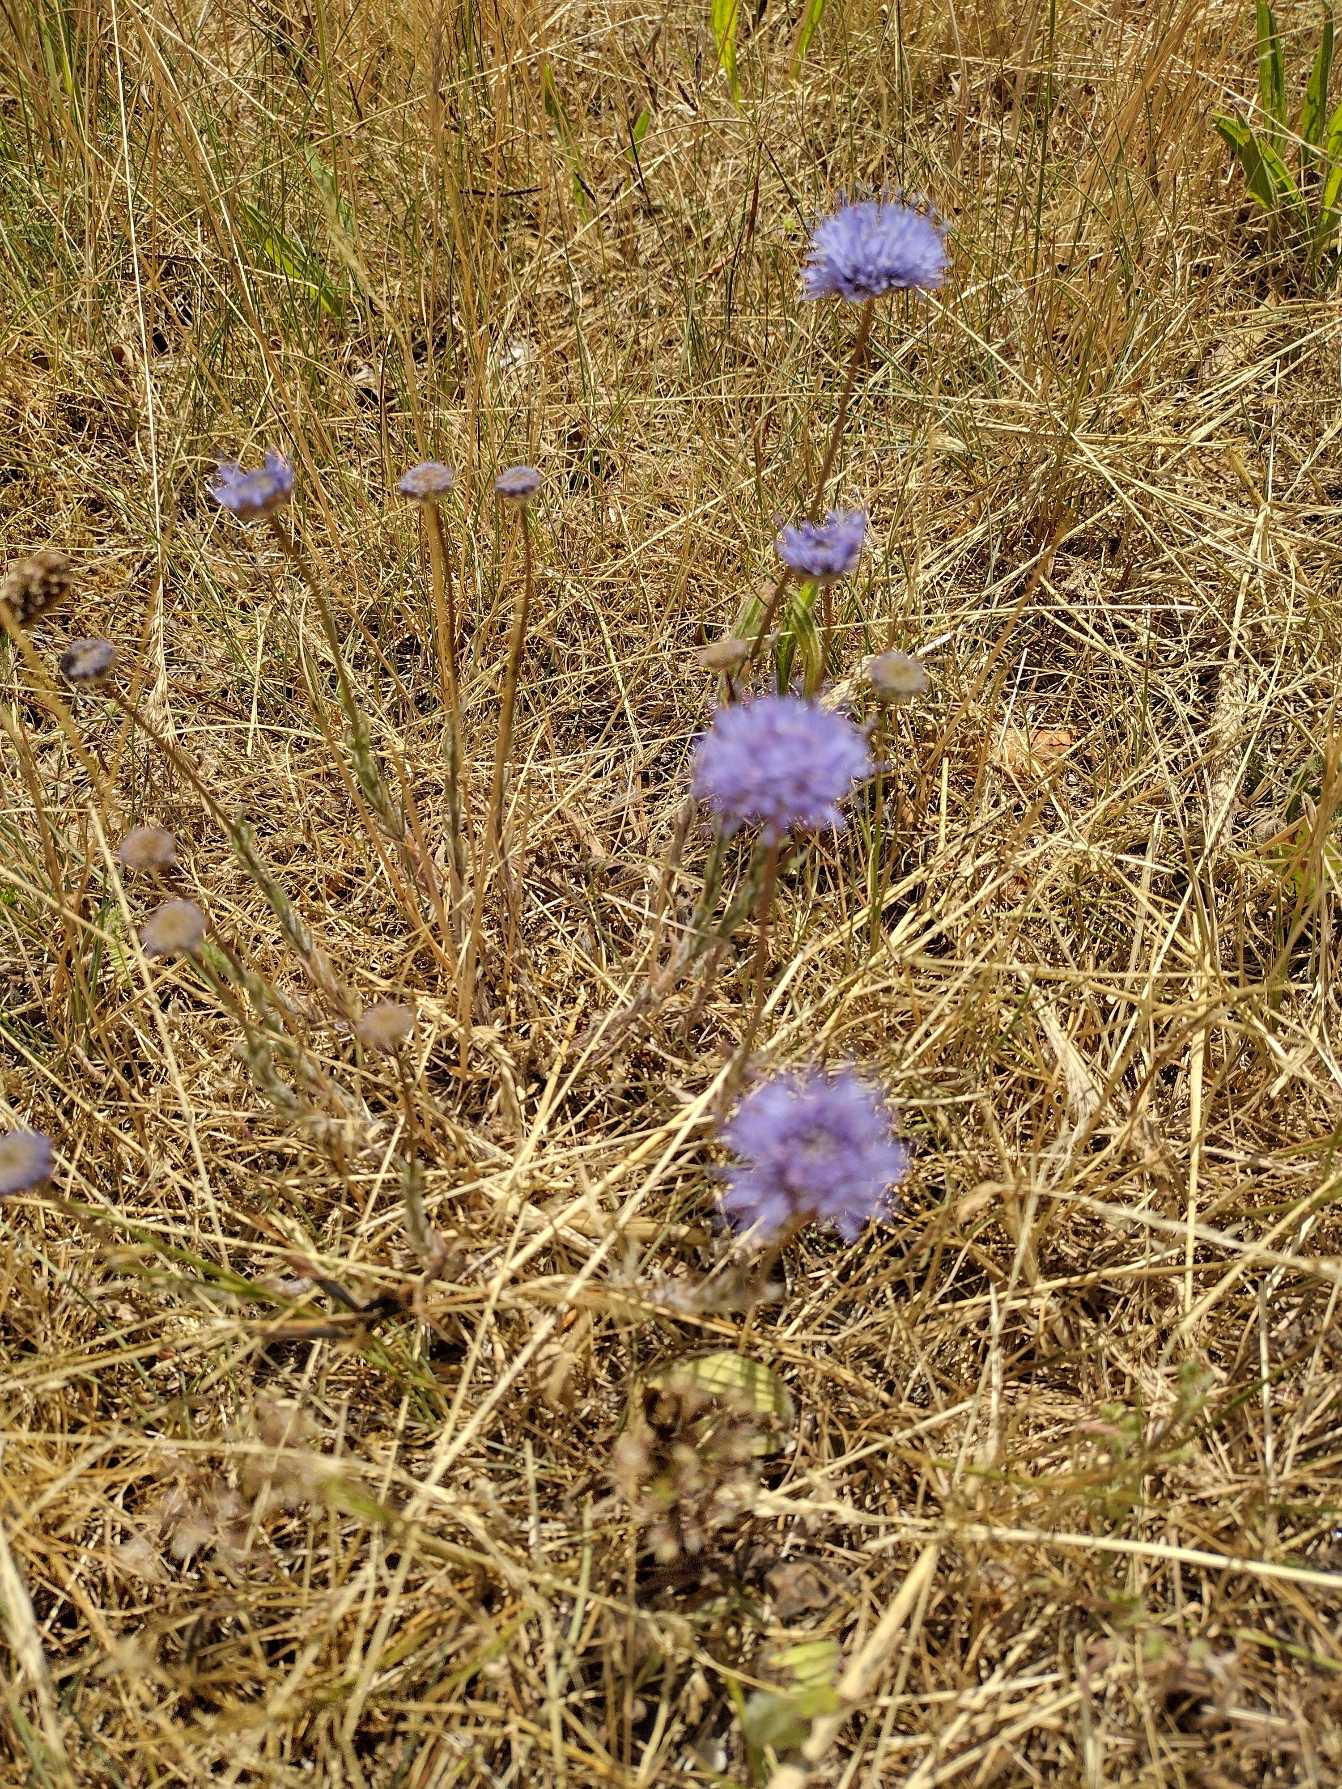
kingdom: Plantae
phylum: Tracheophyta
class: Magnoliopsida
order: Asterales
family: Campanulaceae
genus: Jasione
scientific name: Jasione montana
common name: Blåmunke
